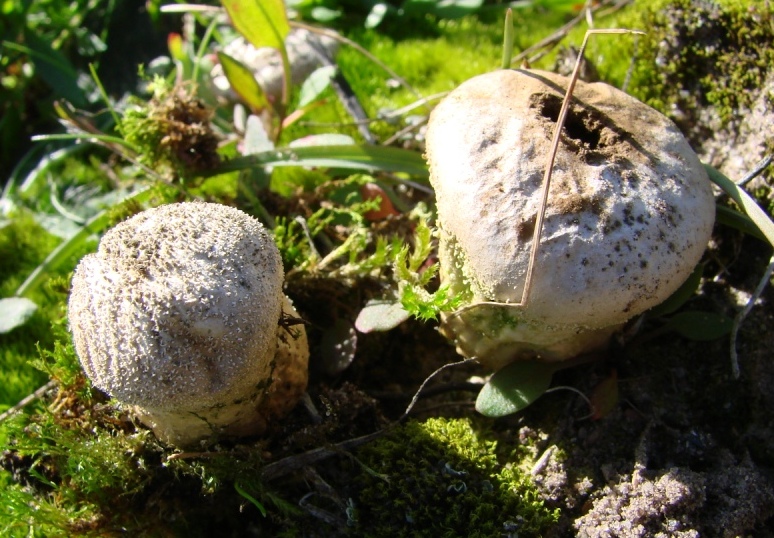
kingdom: Fungi
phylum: Basidiomycota
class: Agaricomycetes
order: Agaricales
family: Lycoperdaceae
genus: Lycoperdon
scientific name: Lycoperdon pratense
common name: flad støvbold
